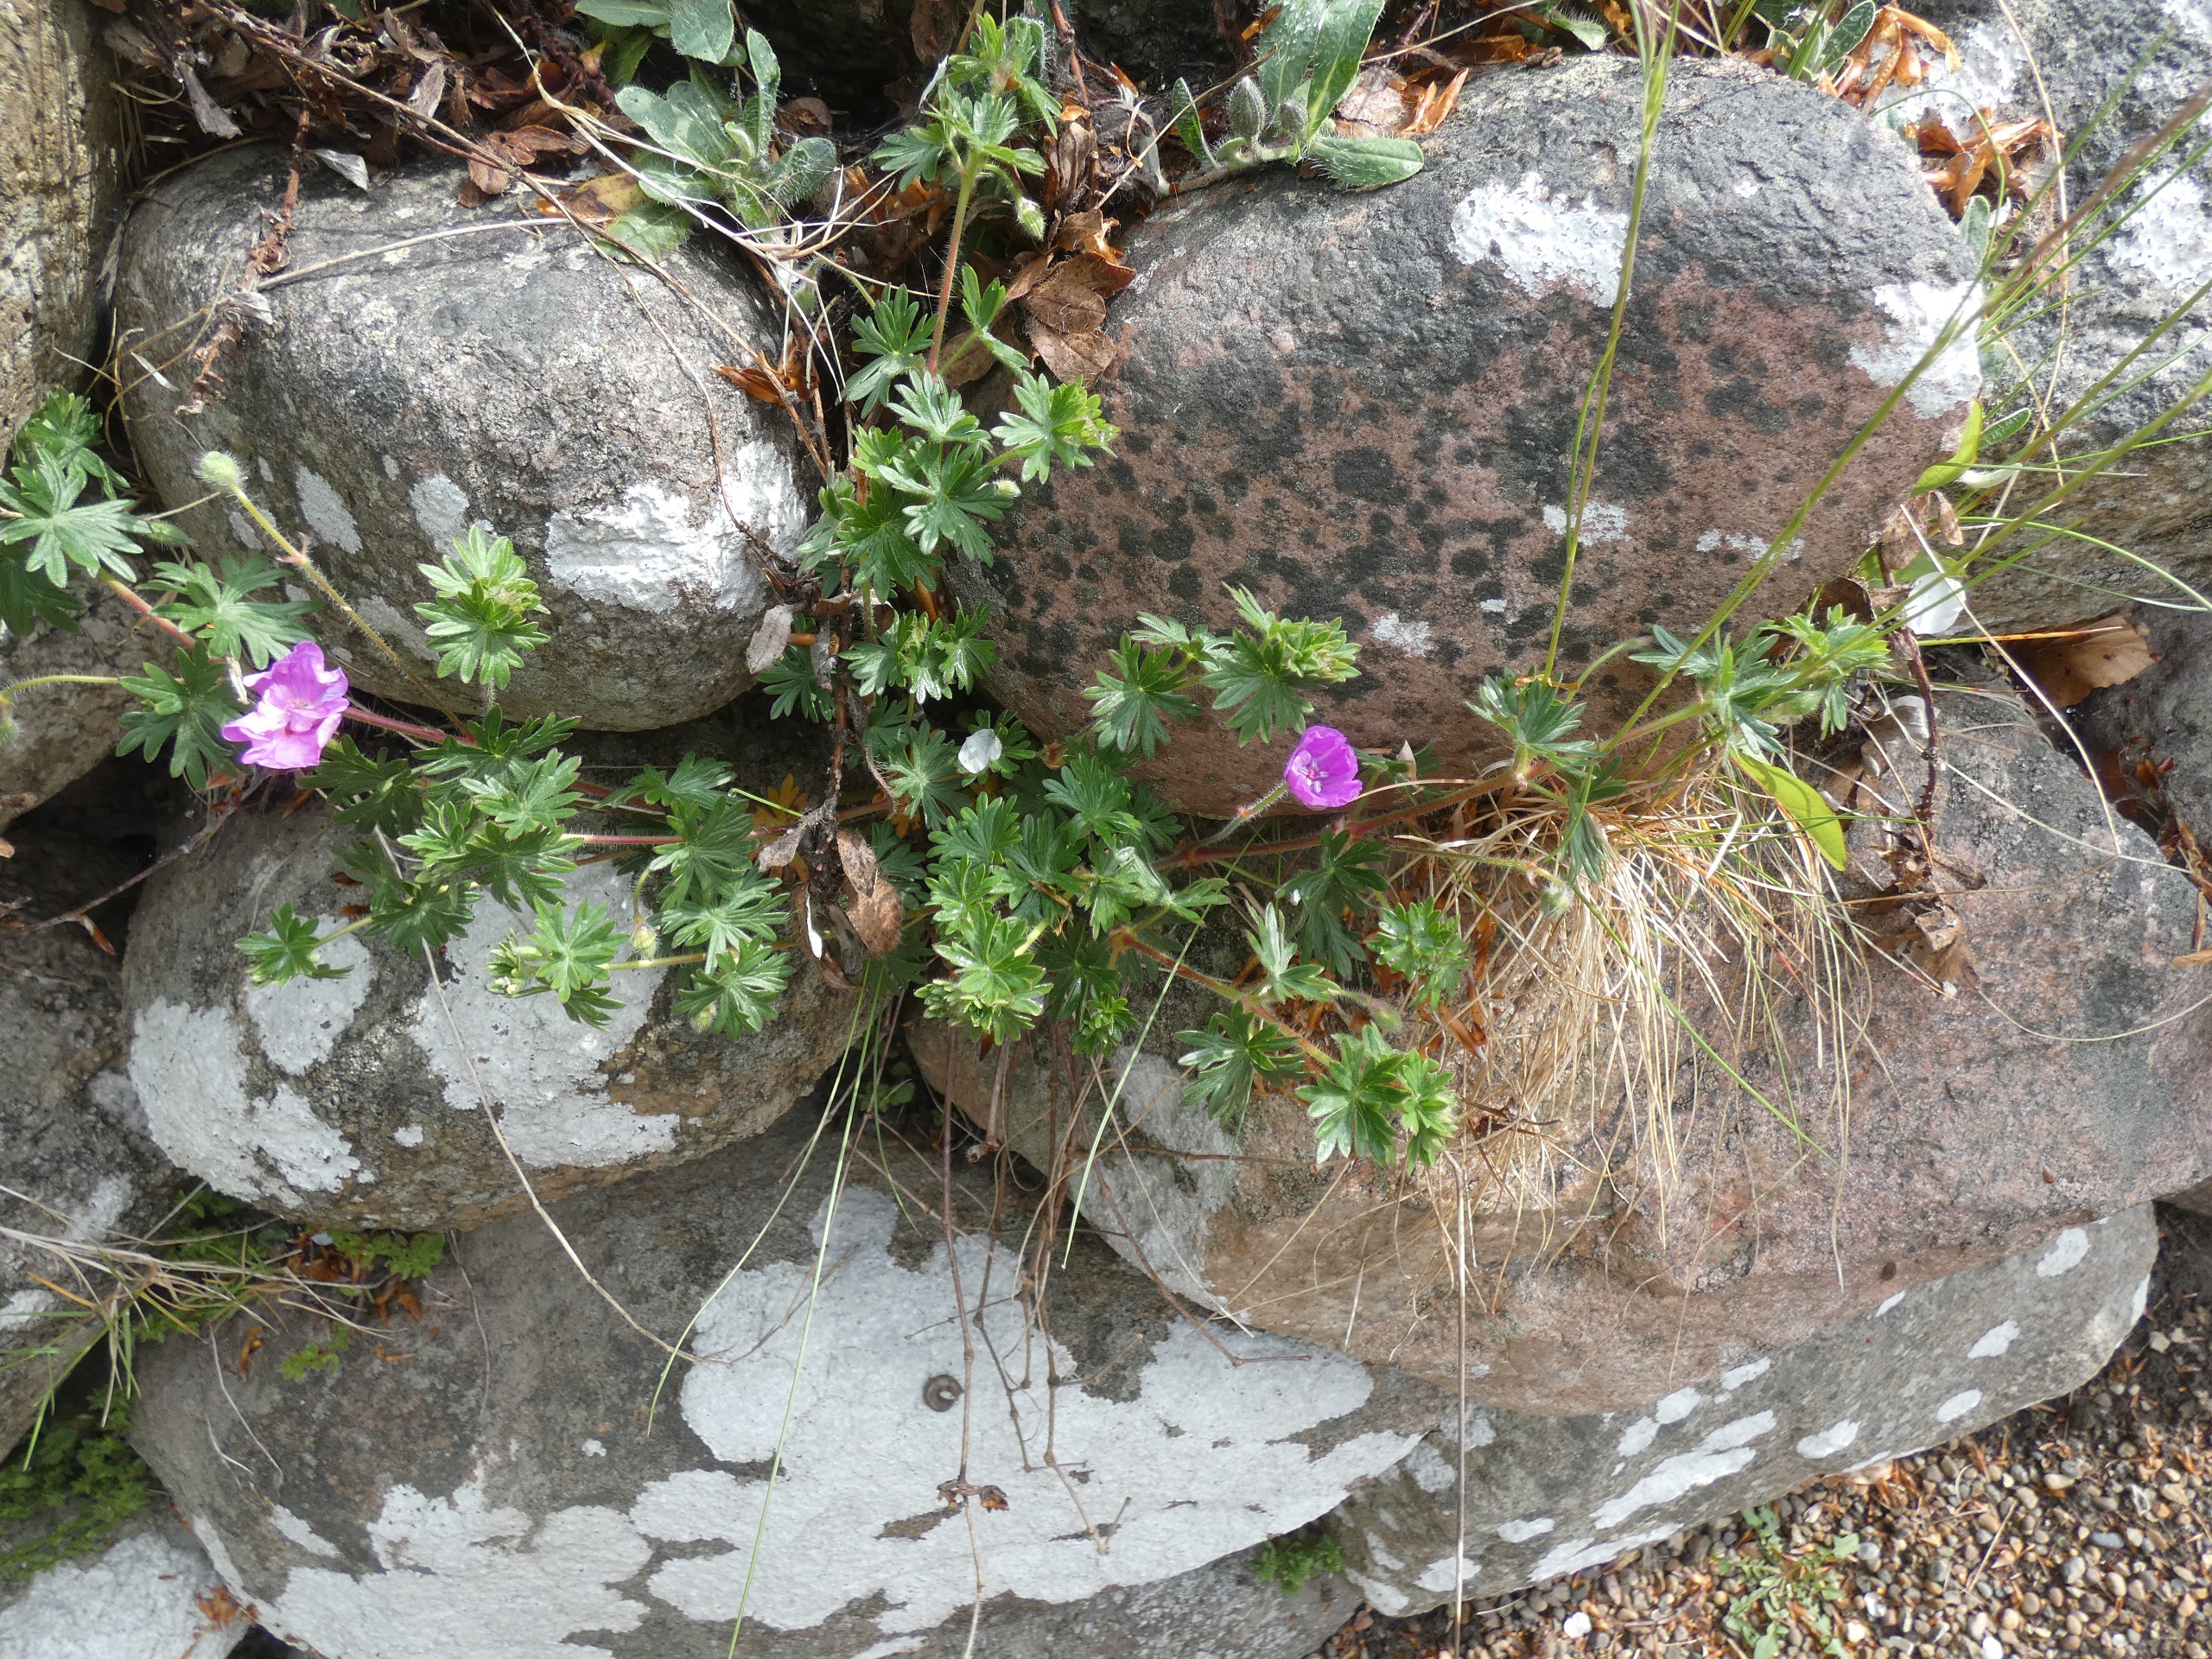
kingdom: Plantae
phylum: Tracheophyta
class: Magnoliopsida
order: Geraniales
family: Geraniaceae
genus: Geranium
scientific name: Geranium sanguineum
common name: Blodrød storkenæb
